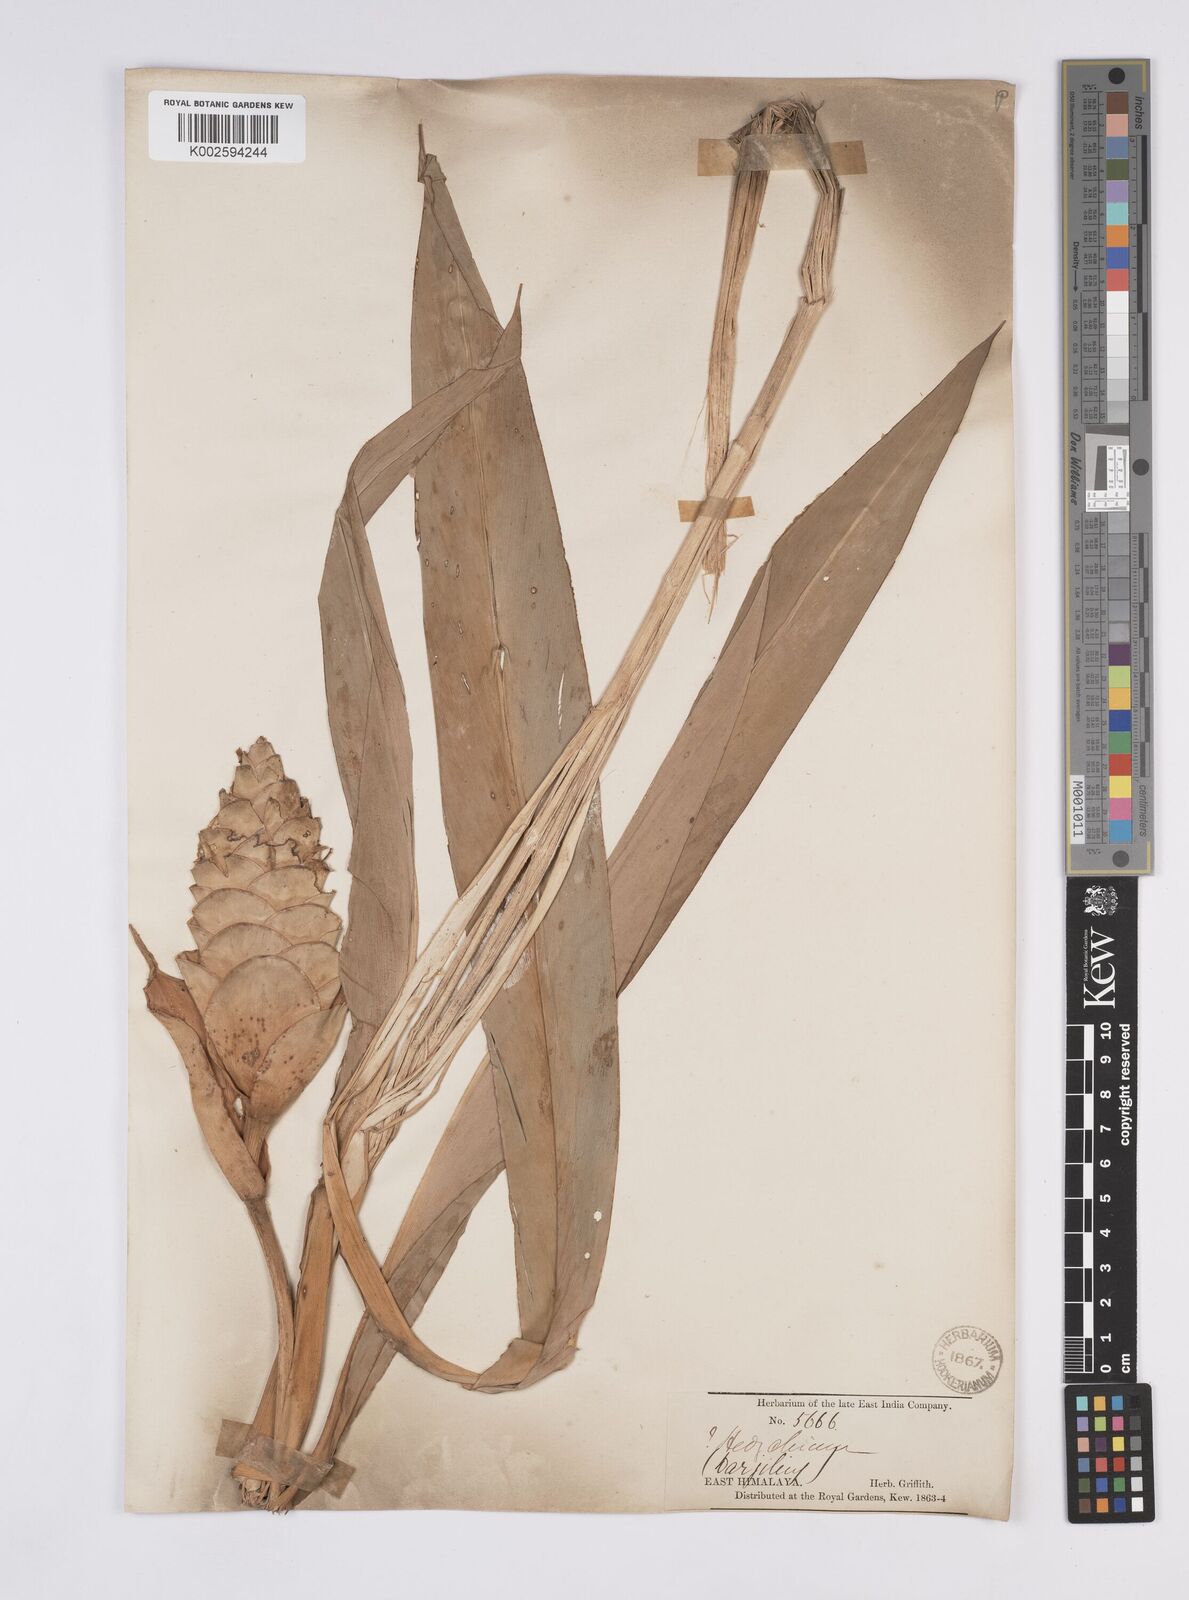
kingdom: Plantae
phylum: Tracheophyta
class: Liliopsida
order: Zingiberales
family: Zingiberaceae
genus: Hedychium
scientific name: Hedychium coronarium
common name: White garland-lily
